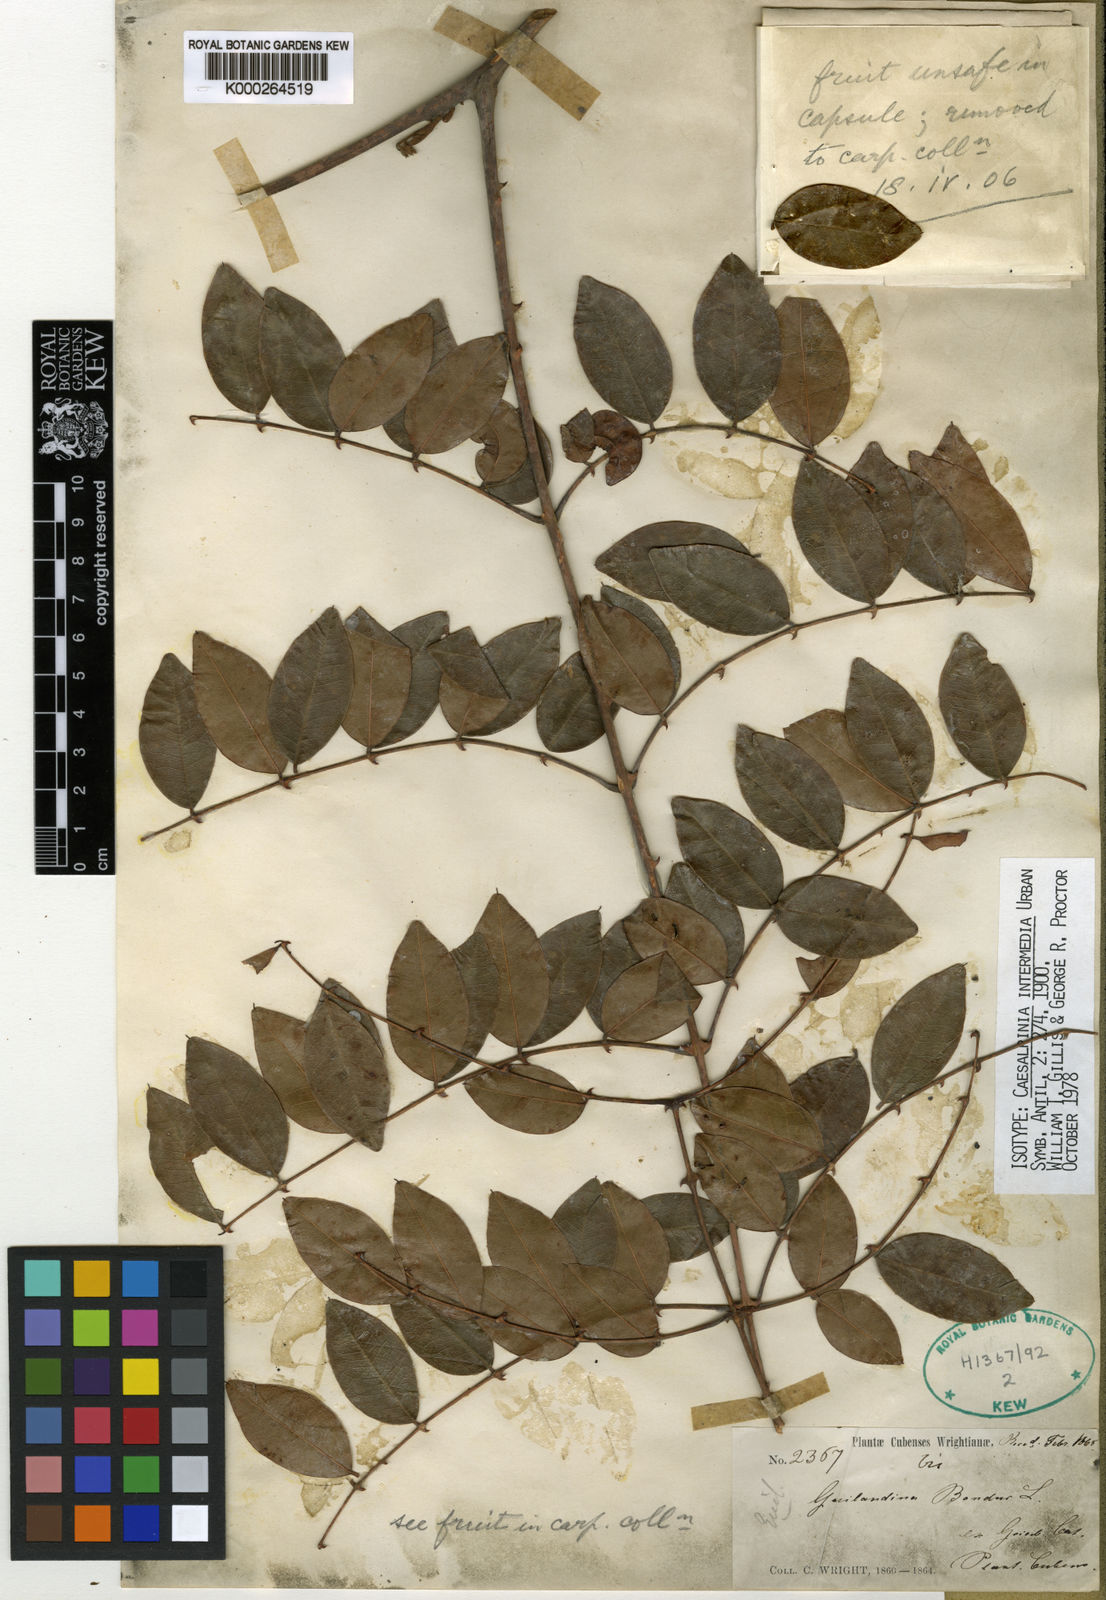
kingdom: Plantae
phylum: Tracheophyta
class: Magnoliopsida
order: Fabales
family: Fabaceae
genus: Guilandina
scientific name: Guilandina intermedia
